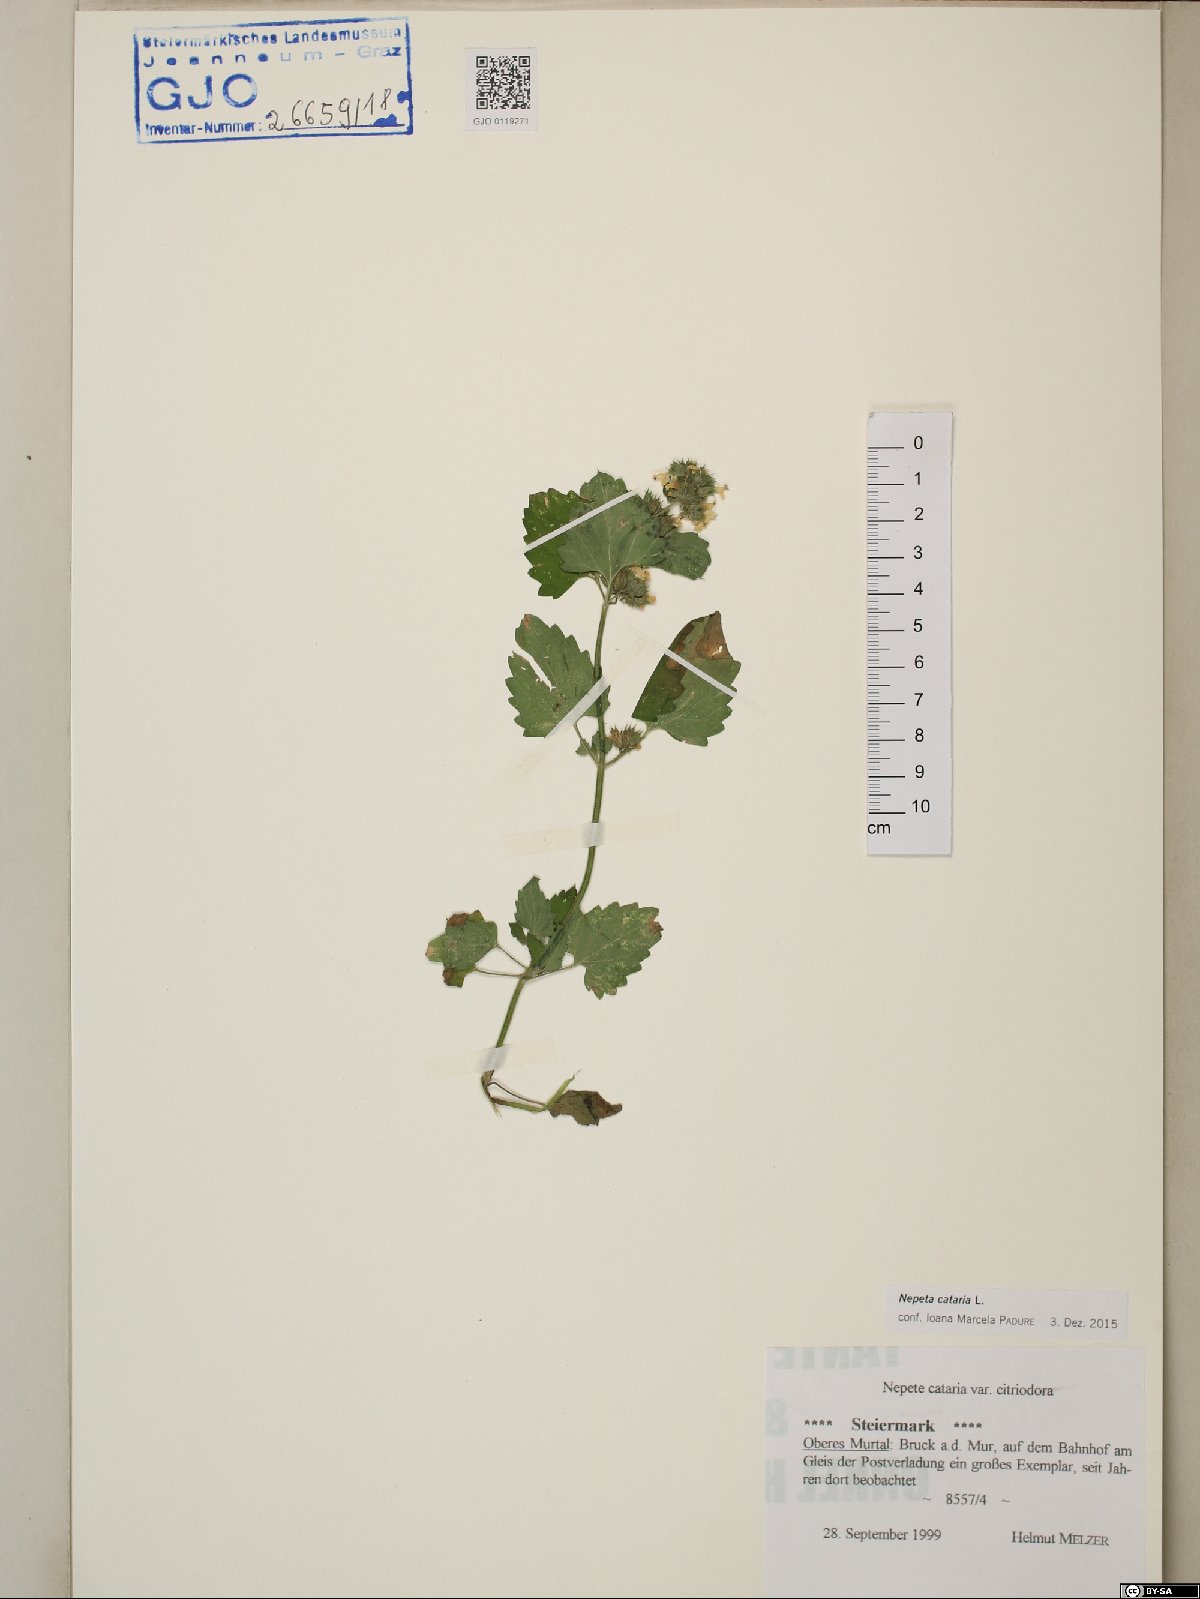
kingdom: Plantae
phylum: Tracheophyta
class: Magnoliopsida
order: Lamiales
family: Lamiaceae
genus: Nepeta
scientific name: Nepeta cataria
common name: Catnip
